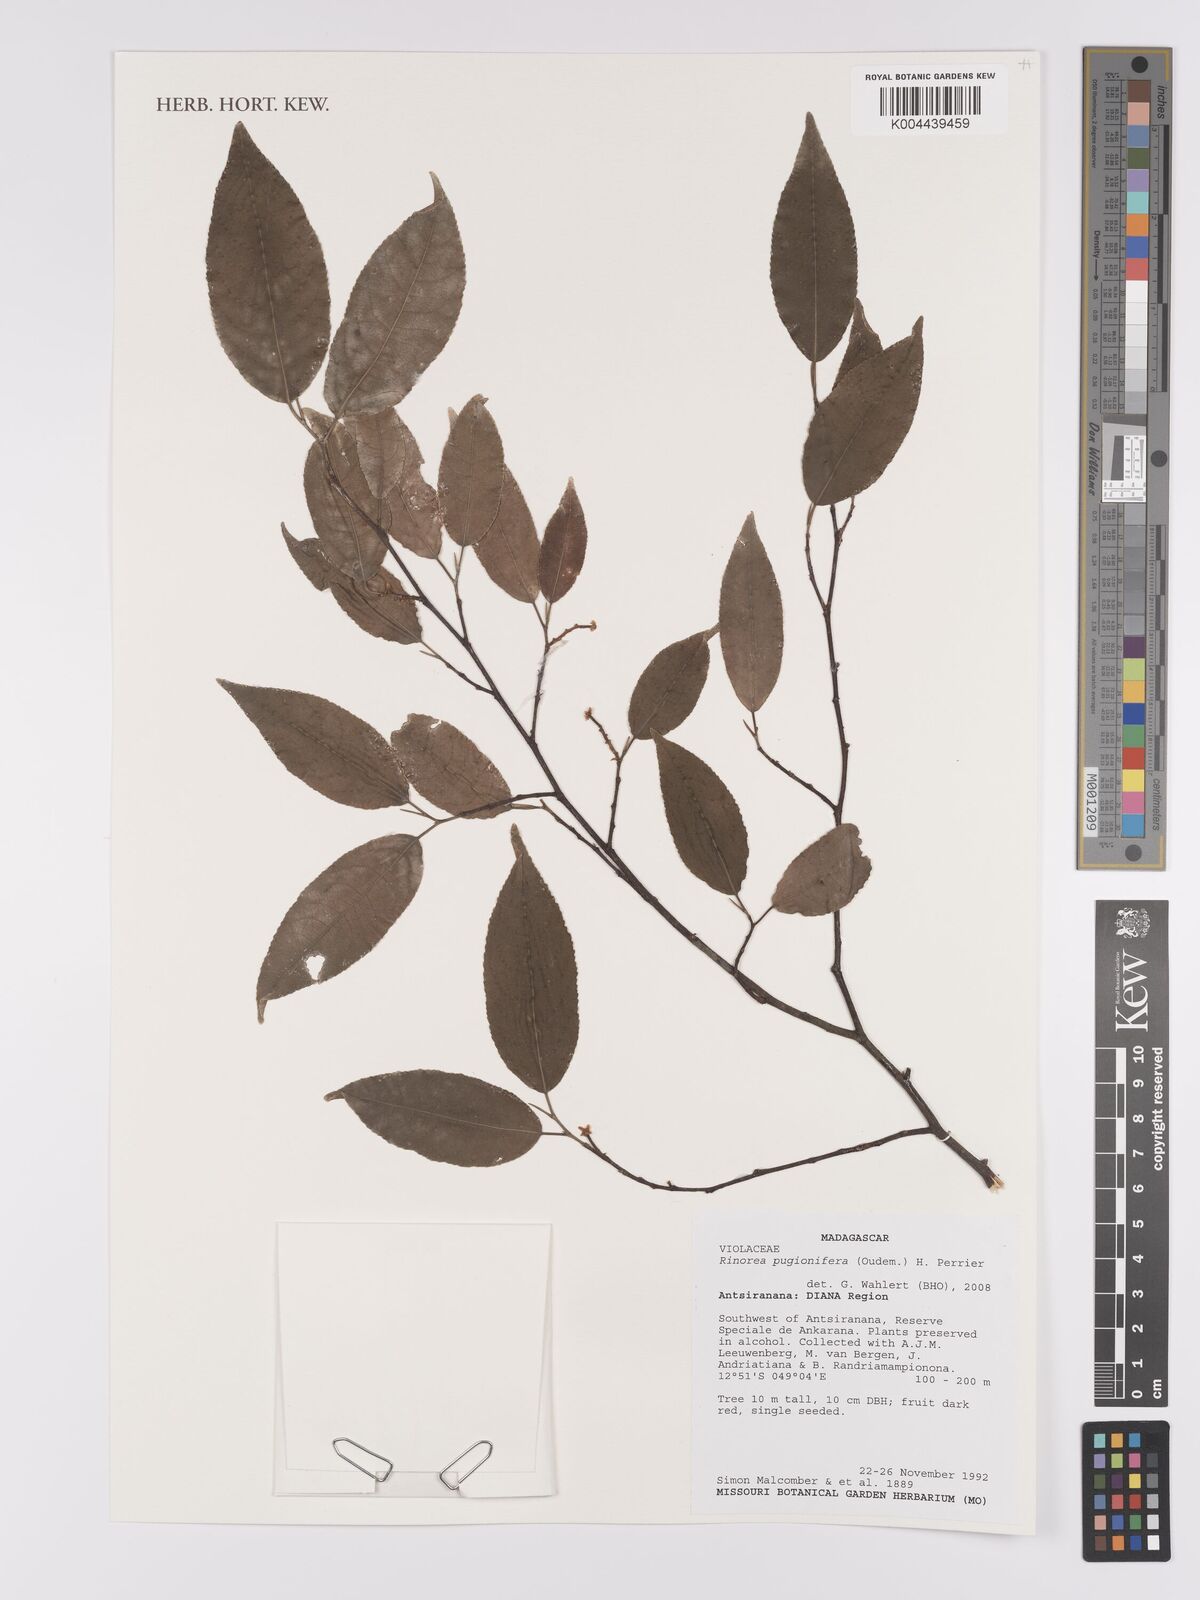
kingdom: Plantae
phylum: Tracheophyta
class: Magnoliopsida
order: Malpighiales
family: Violaceae
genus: Rinorea
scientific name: Rinorea pugionifera
